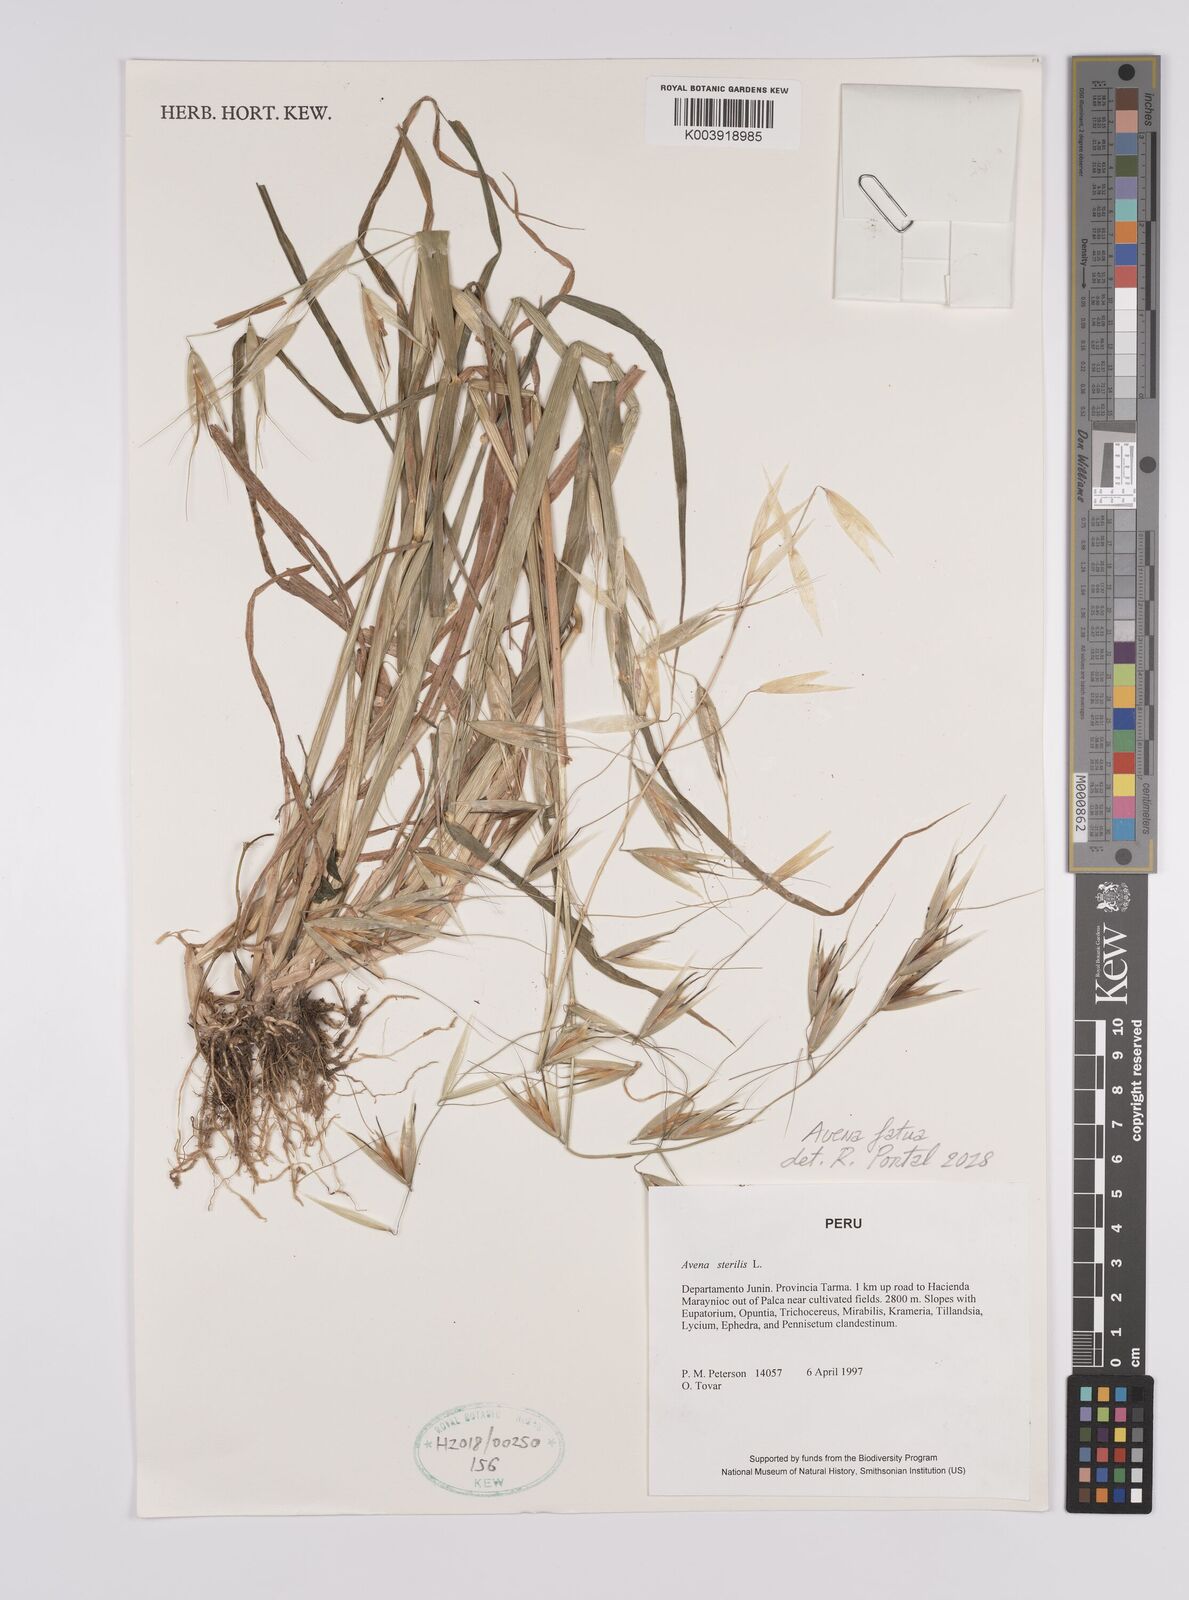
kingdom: Plantae
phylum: Tracheophyta
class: Liliopsida
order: Poales
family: Poaceae
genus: Avena
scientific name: Avena fatua
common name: Wild oat
